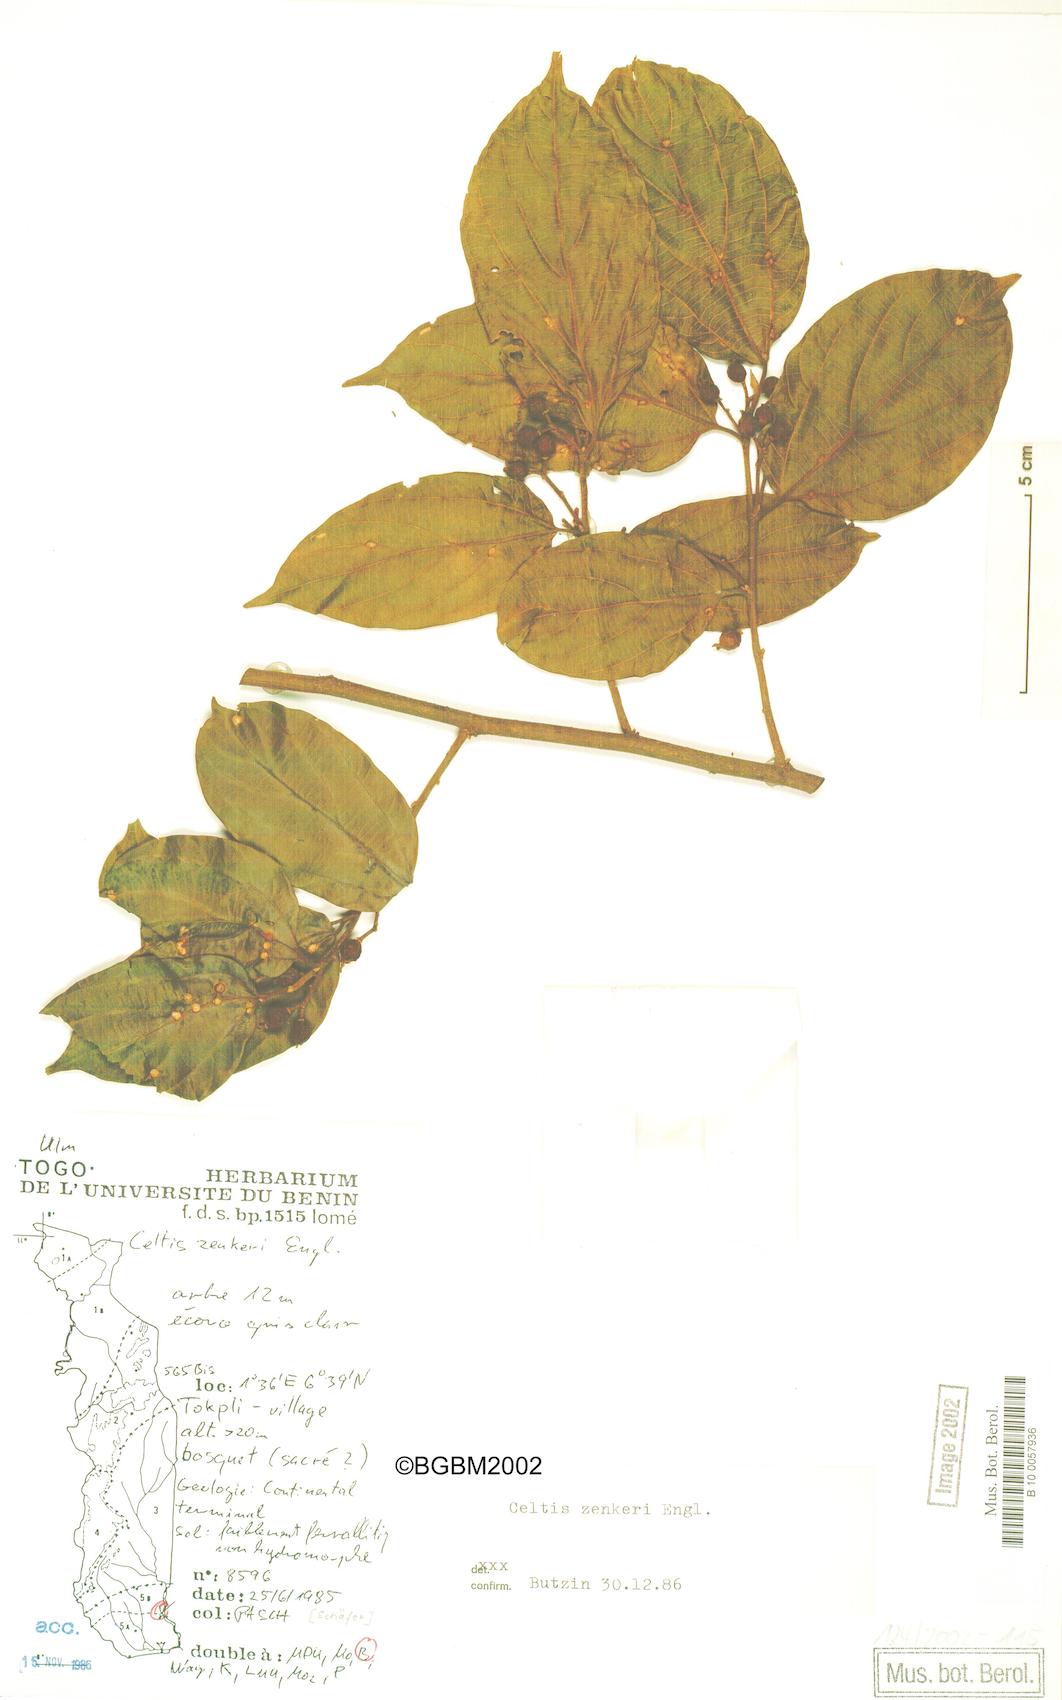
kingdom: Plantae
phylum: Tracheophyta
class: Magnoliopsida
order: Rosales
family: Cannabaceae
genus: Celtis
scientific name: Celtis zenkeri
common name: African celtis
